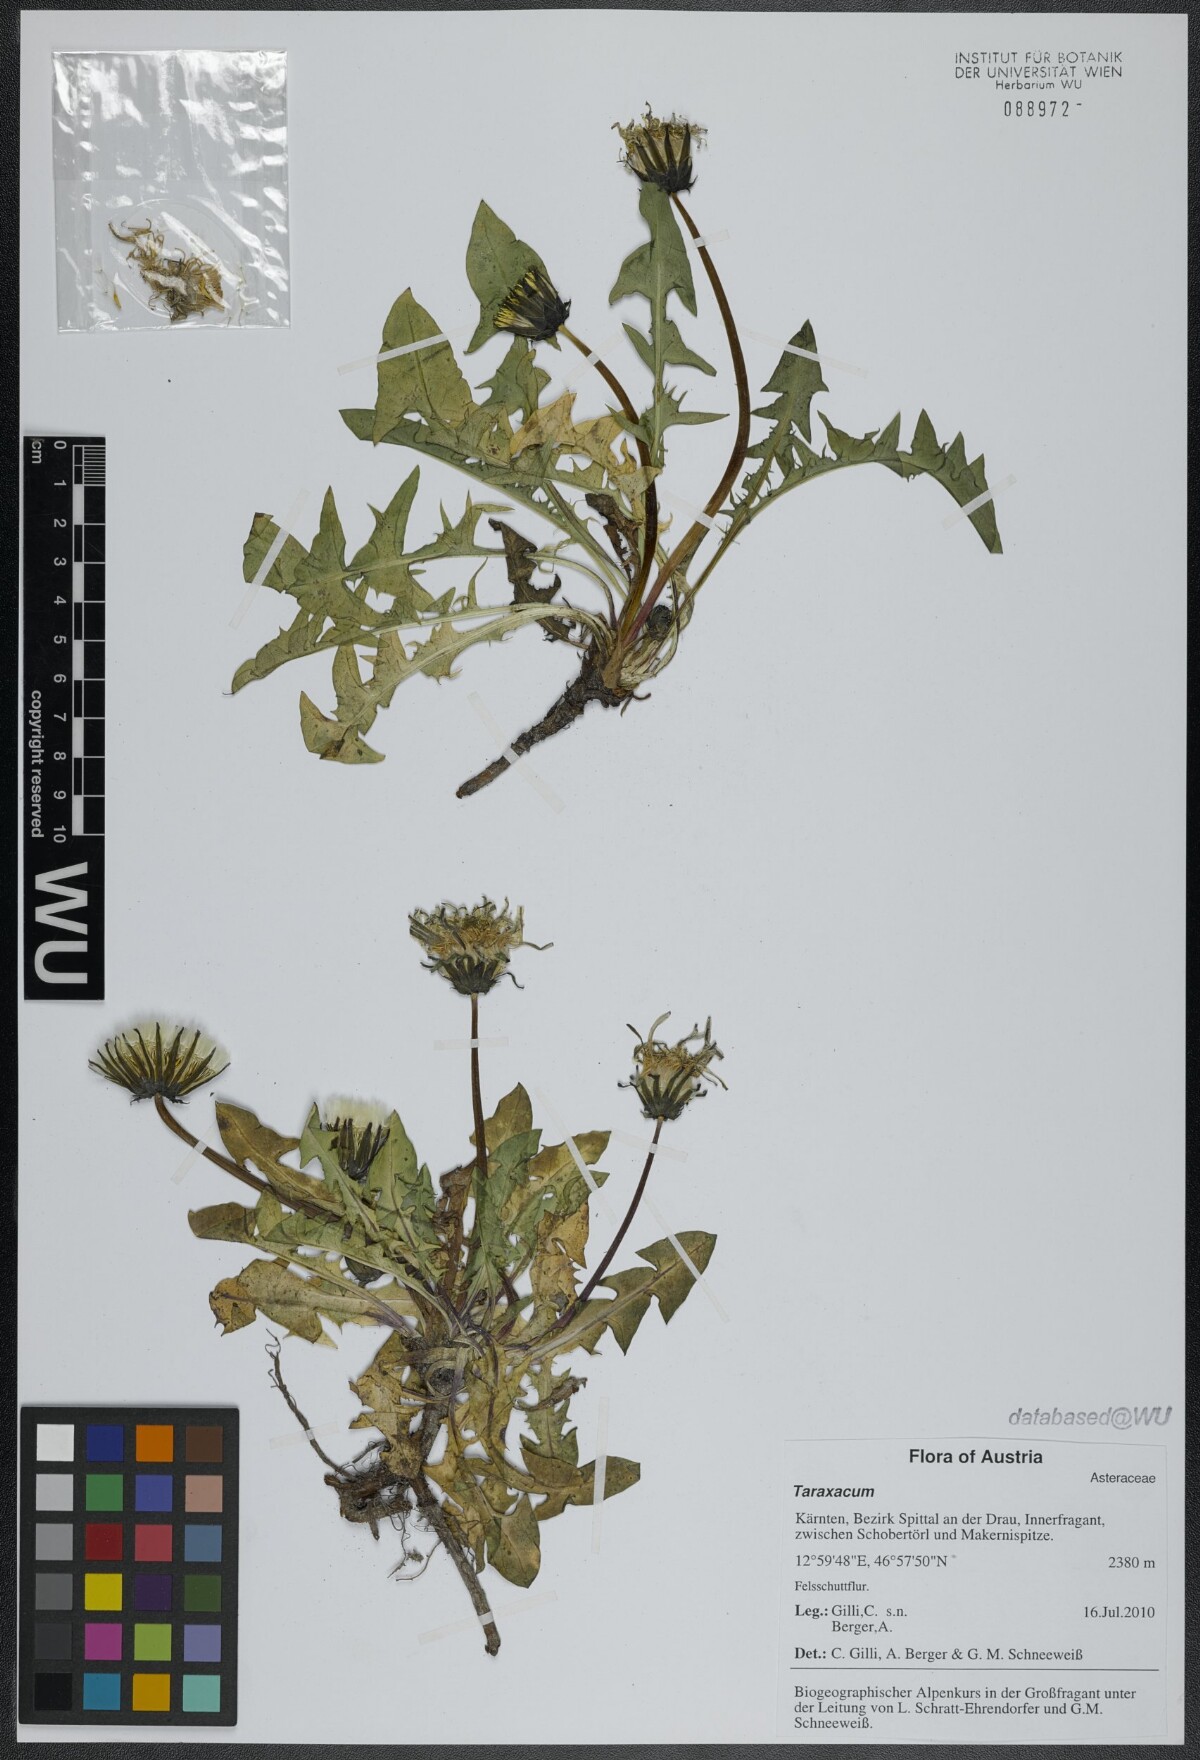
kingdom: Plantae
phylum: Tracheophyta
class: Magnoliopsida
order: Asterales
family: Asteraceae
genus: Taraxacum
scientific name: Taraxacum
